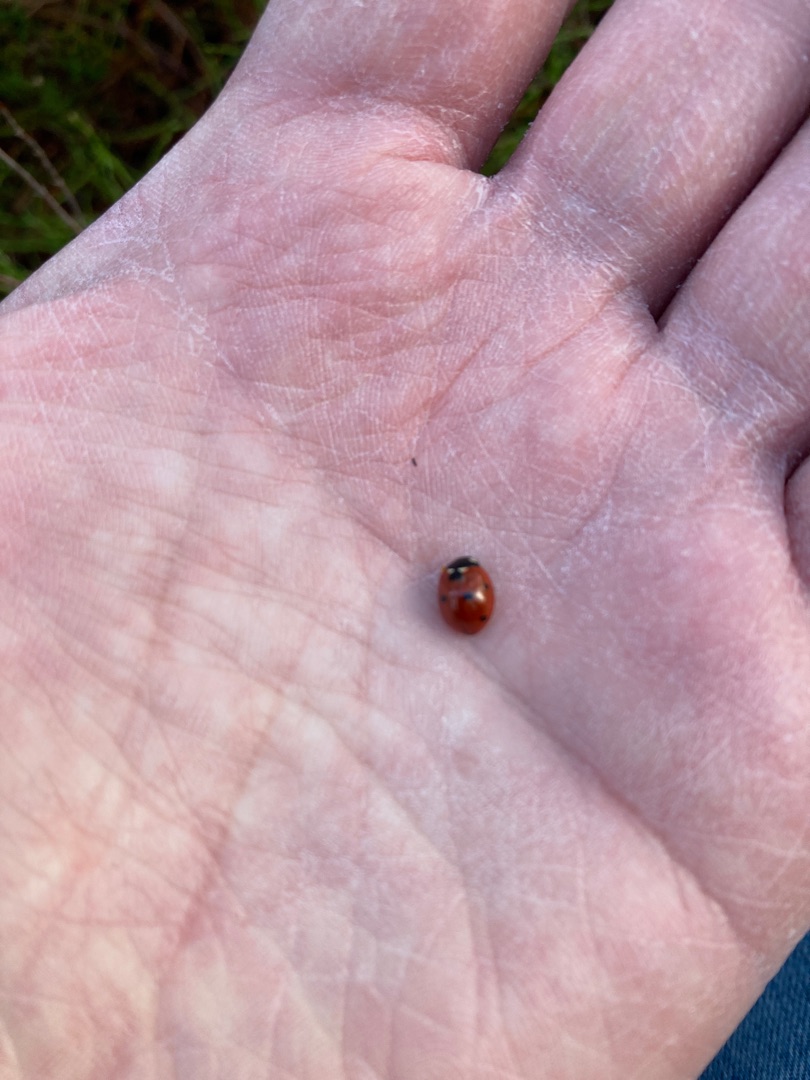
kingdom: Animalia
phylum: Arthropoda
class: Insecta
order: Coleoptera
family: Coccinellidae
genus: Coccinella
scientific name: Coccinella septempunctata
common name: Syvplettet mariehøne
